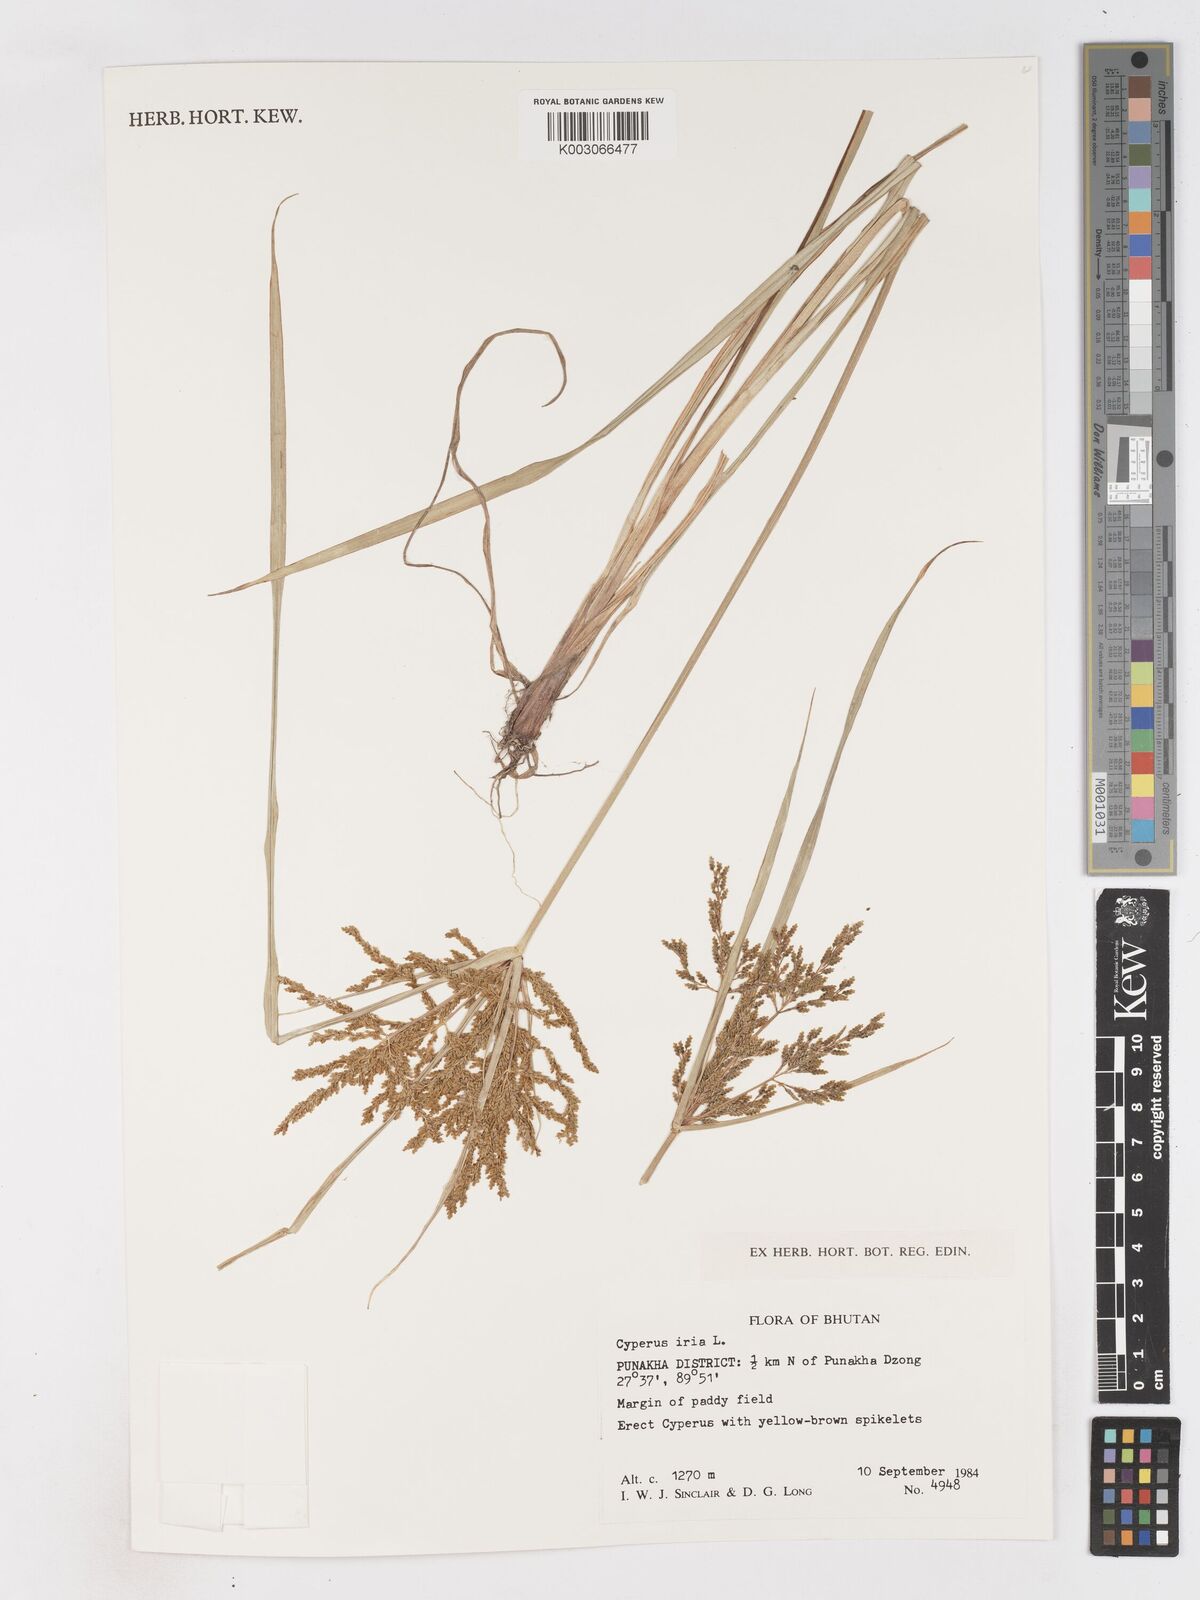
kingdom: Plantae
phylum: Tracheophyta
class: Liliopsida
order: Poales
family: Cyperaceae
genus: Cyperus
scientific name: Cyperus iria
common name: Ricefield flatsedge
